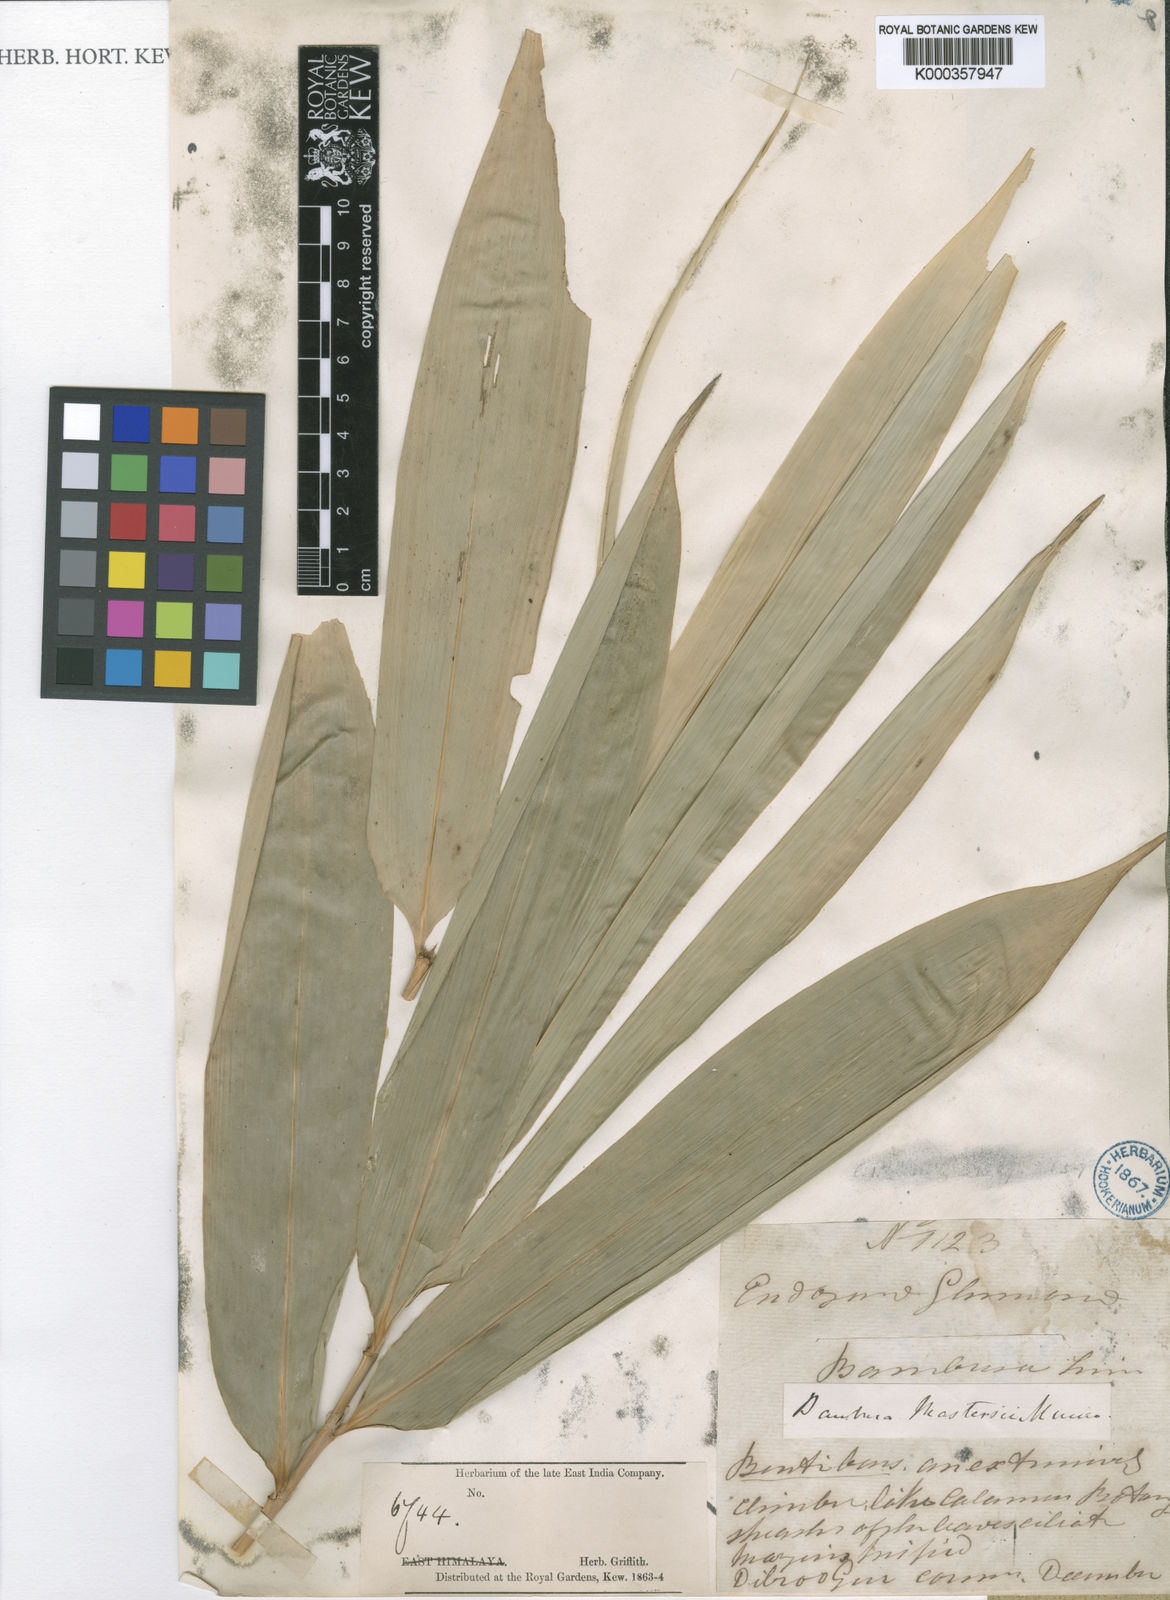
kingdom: Plantae
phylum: Tracheophyta
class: Liliopsida
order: Poales
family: Poaceae
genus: Melocalamus
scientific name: Melocalamus mastersii
